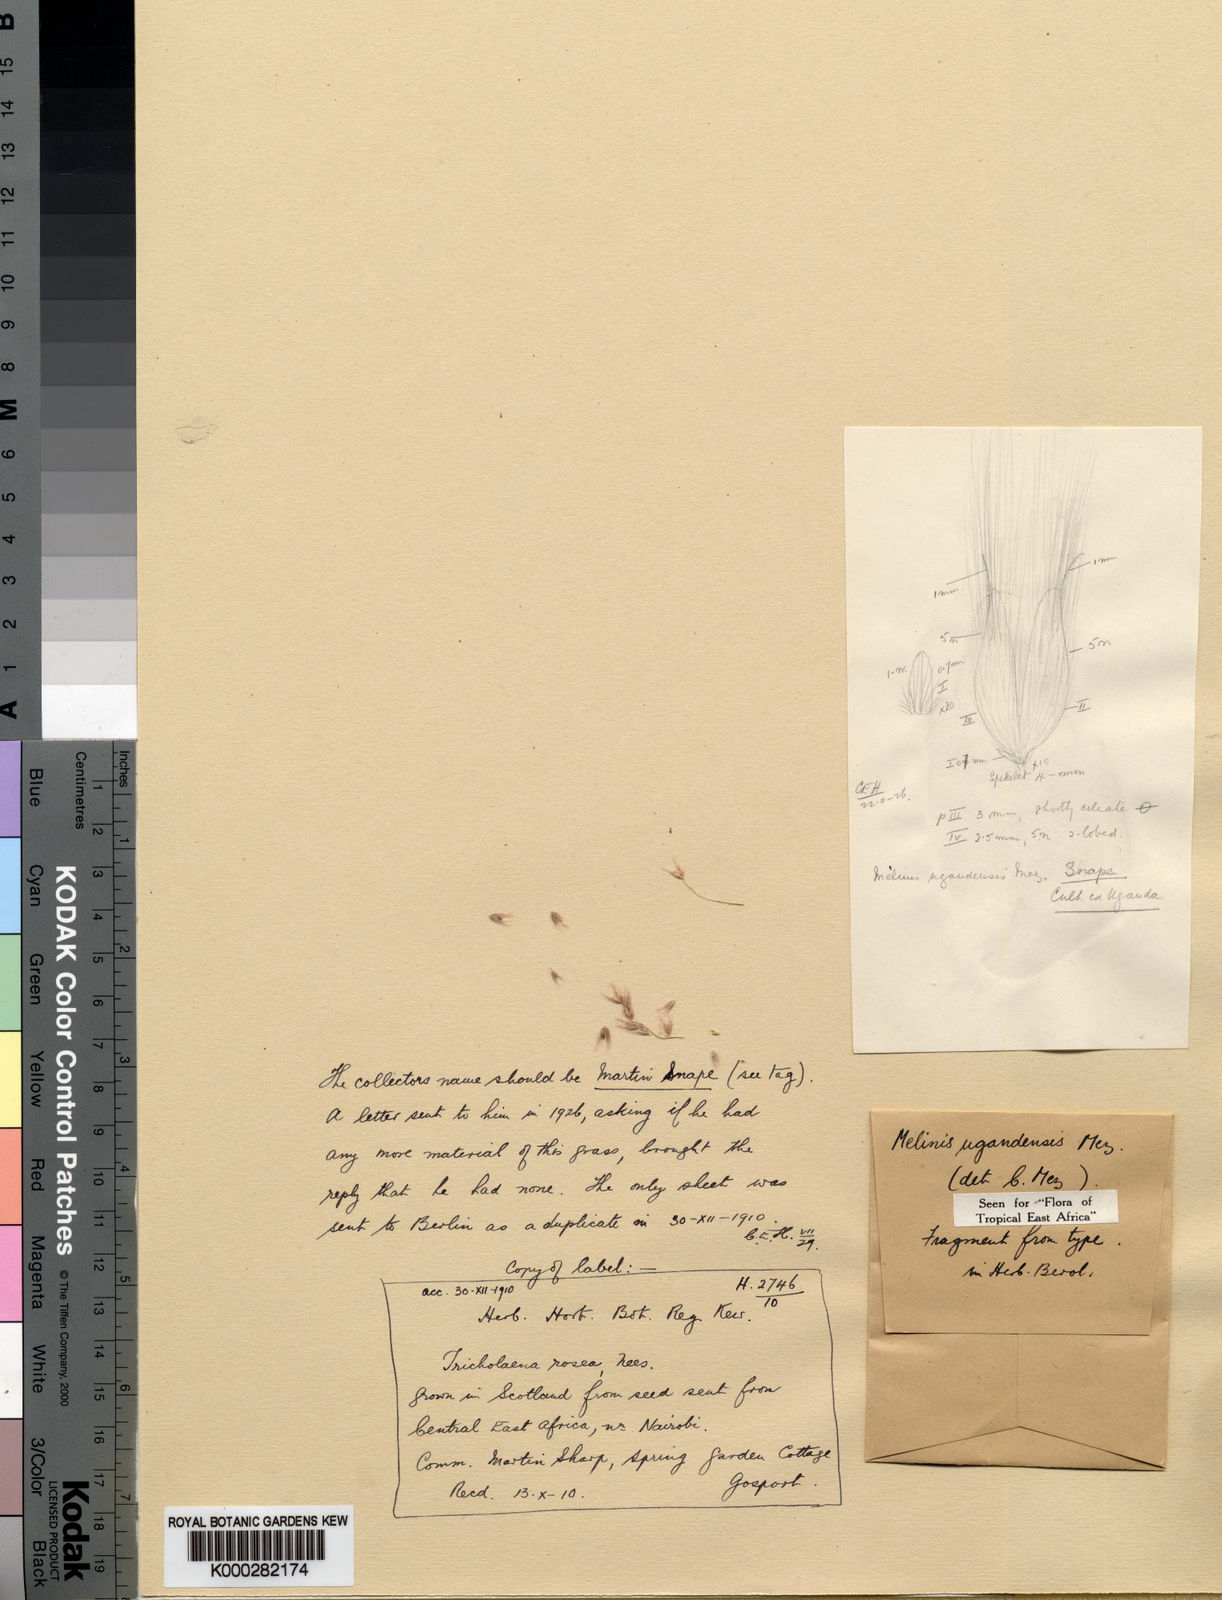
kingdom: Plantae
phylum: Tracheophyta
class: Liliopsida
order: Poales
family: Poaceae
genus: Melinis
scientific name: Melinis repens
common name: Rose natal grass
